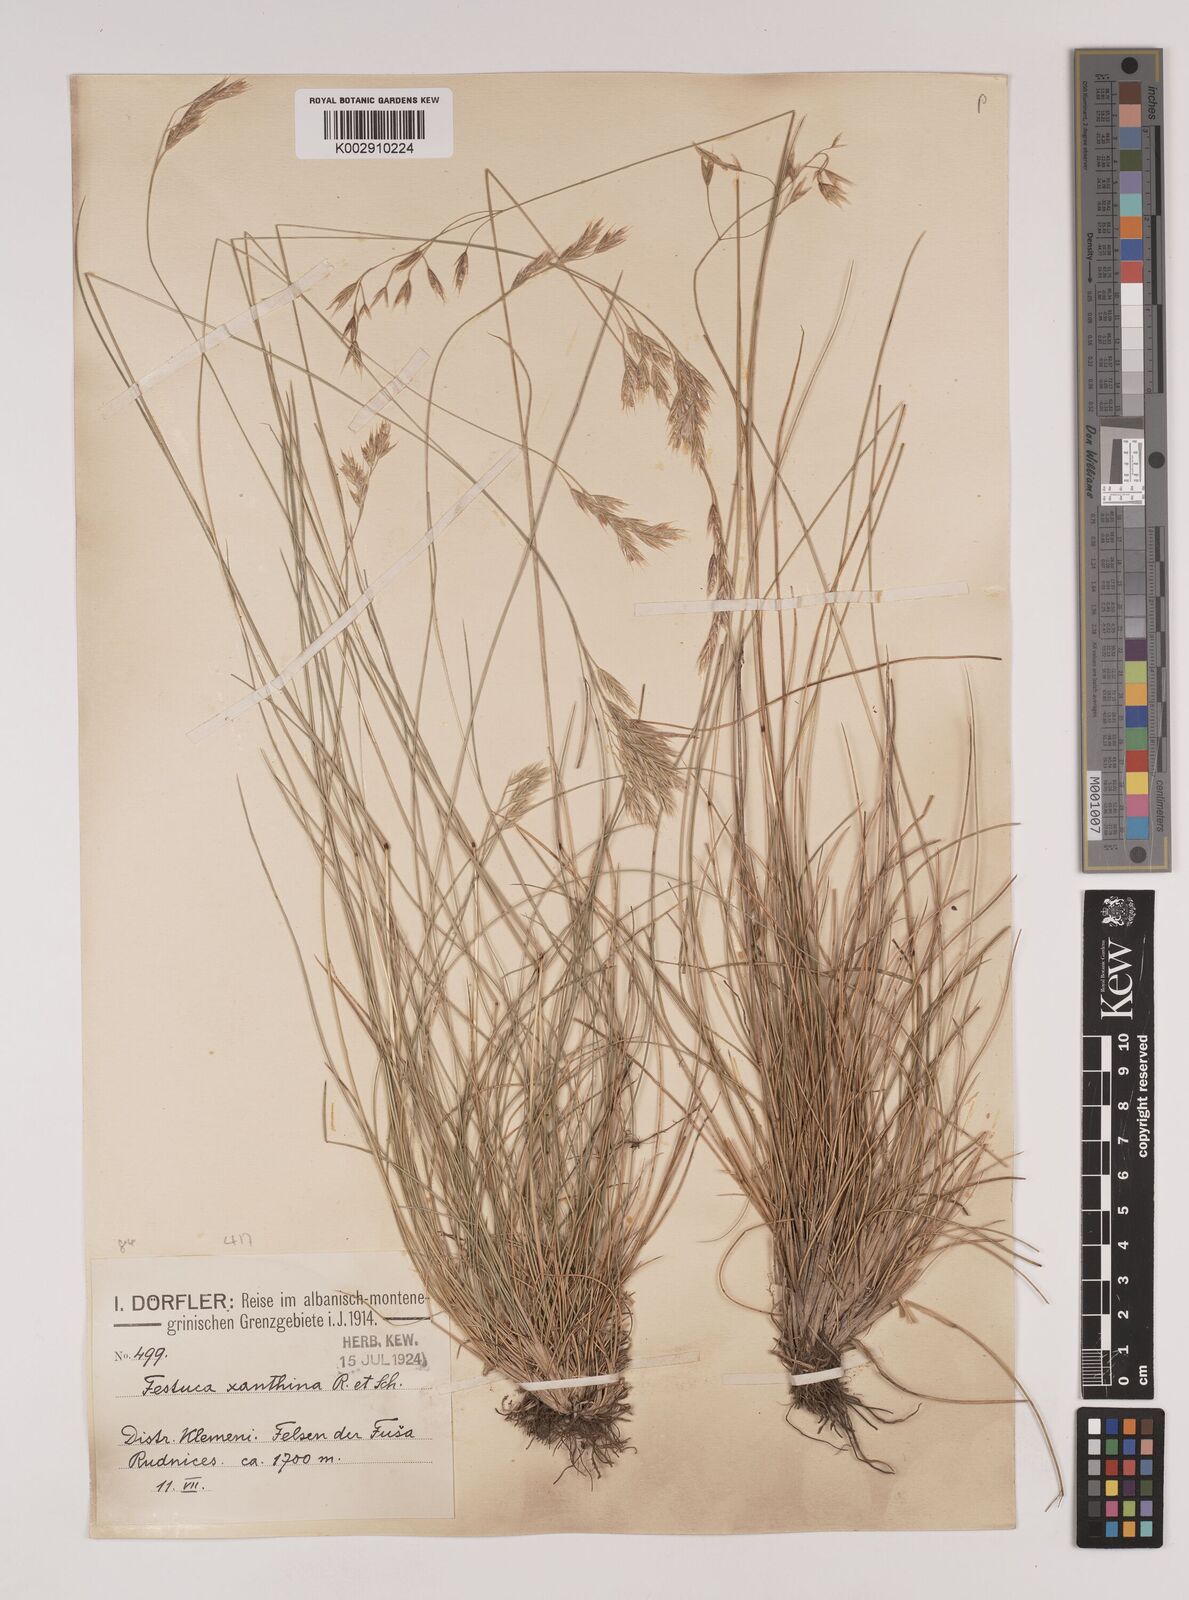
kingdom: Plantae
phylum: Tracheophyta
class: Liliopsida
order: Poales
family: Poaceae
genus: Festuca
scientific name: Festuca xanthina
